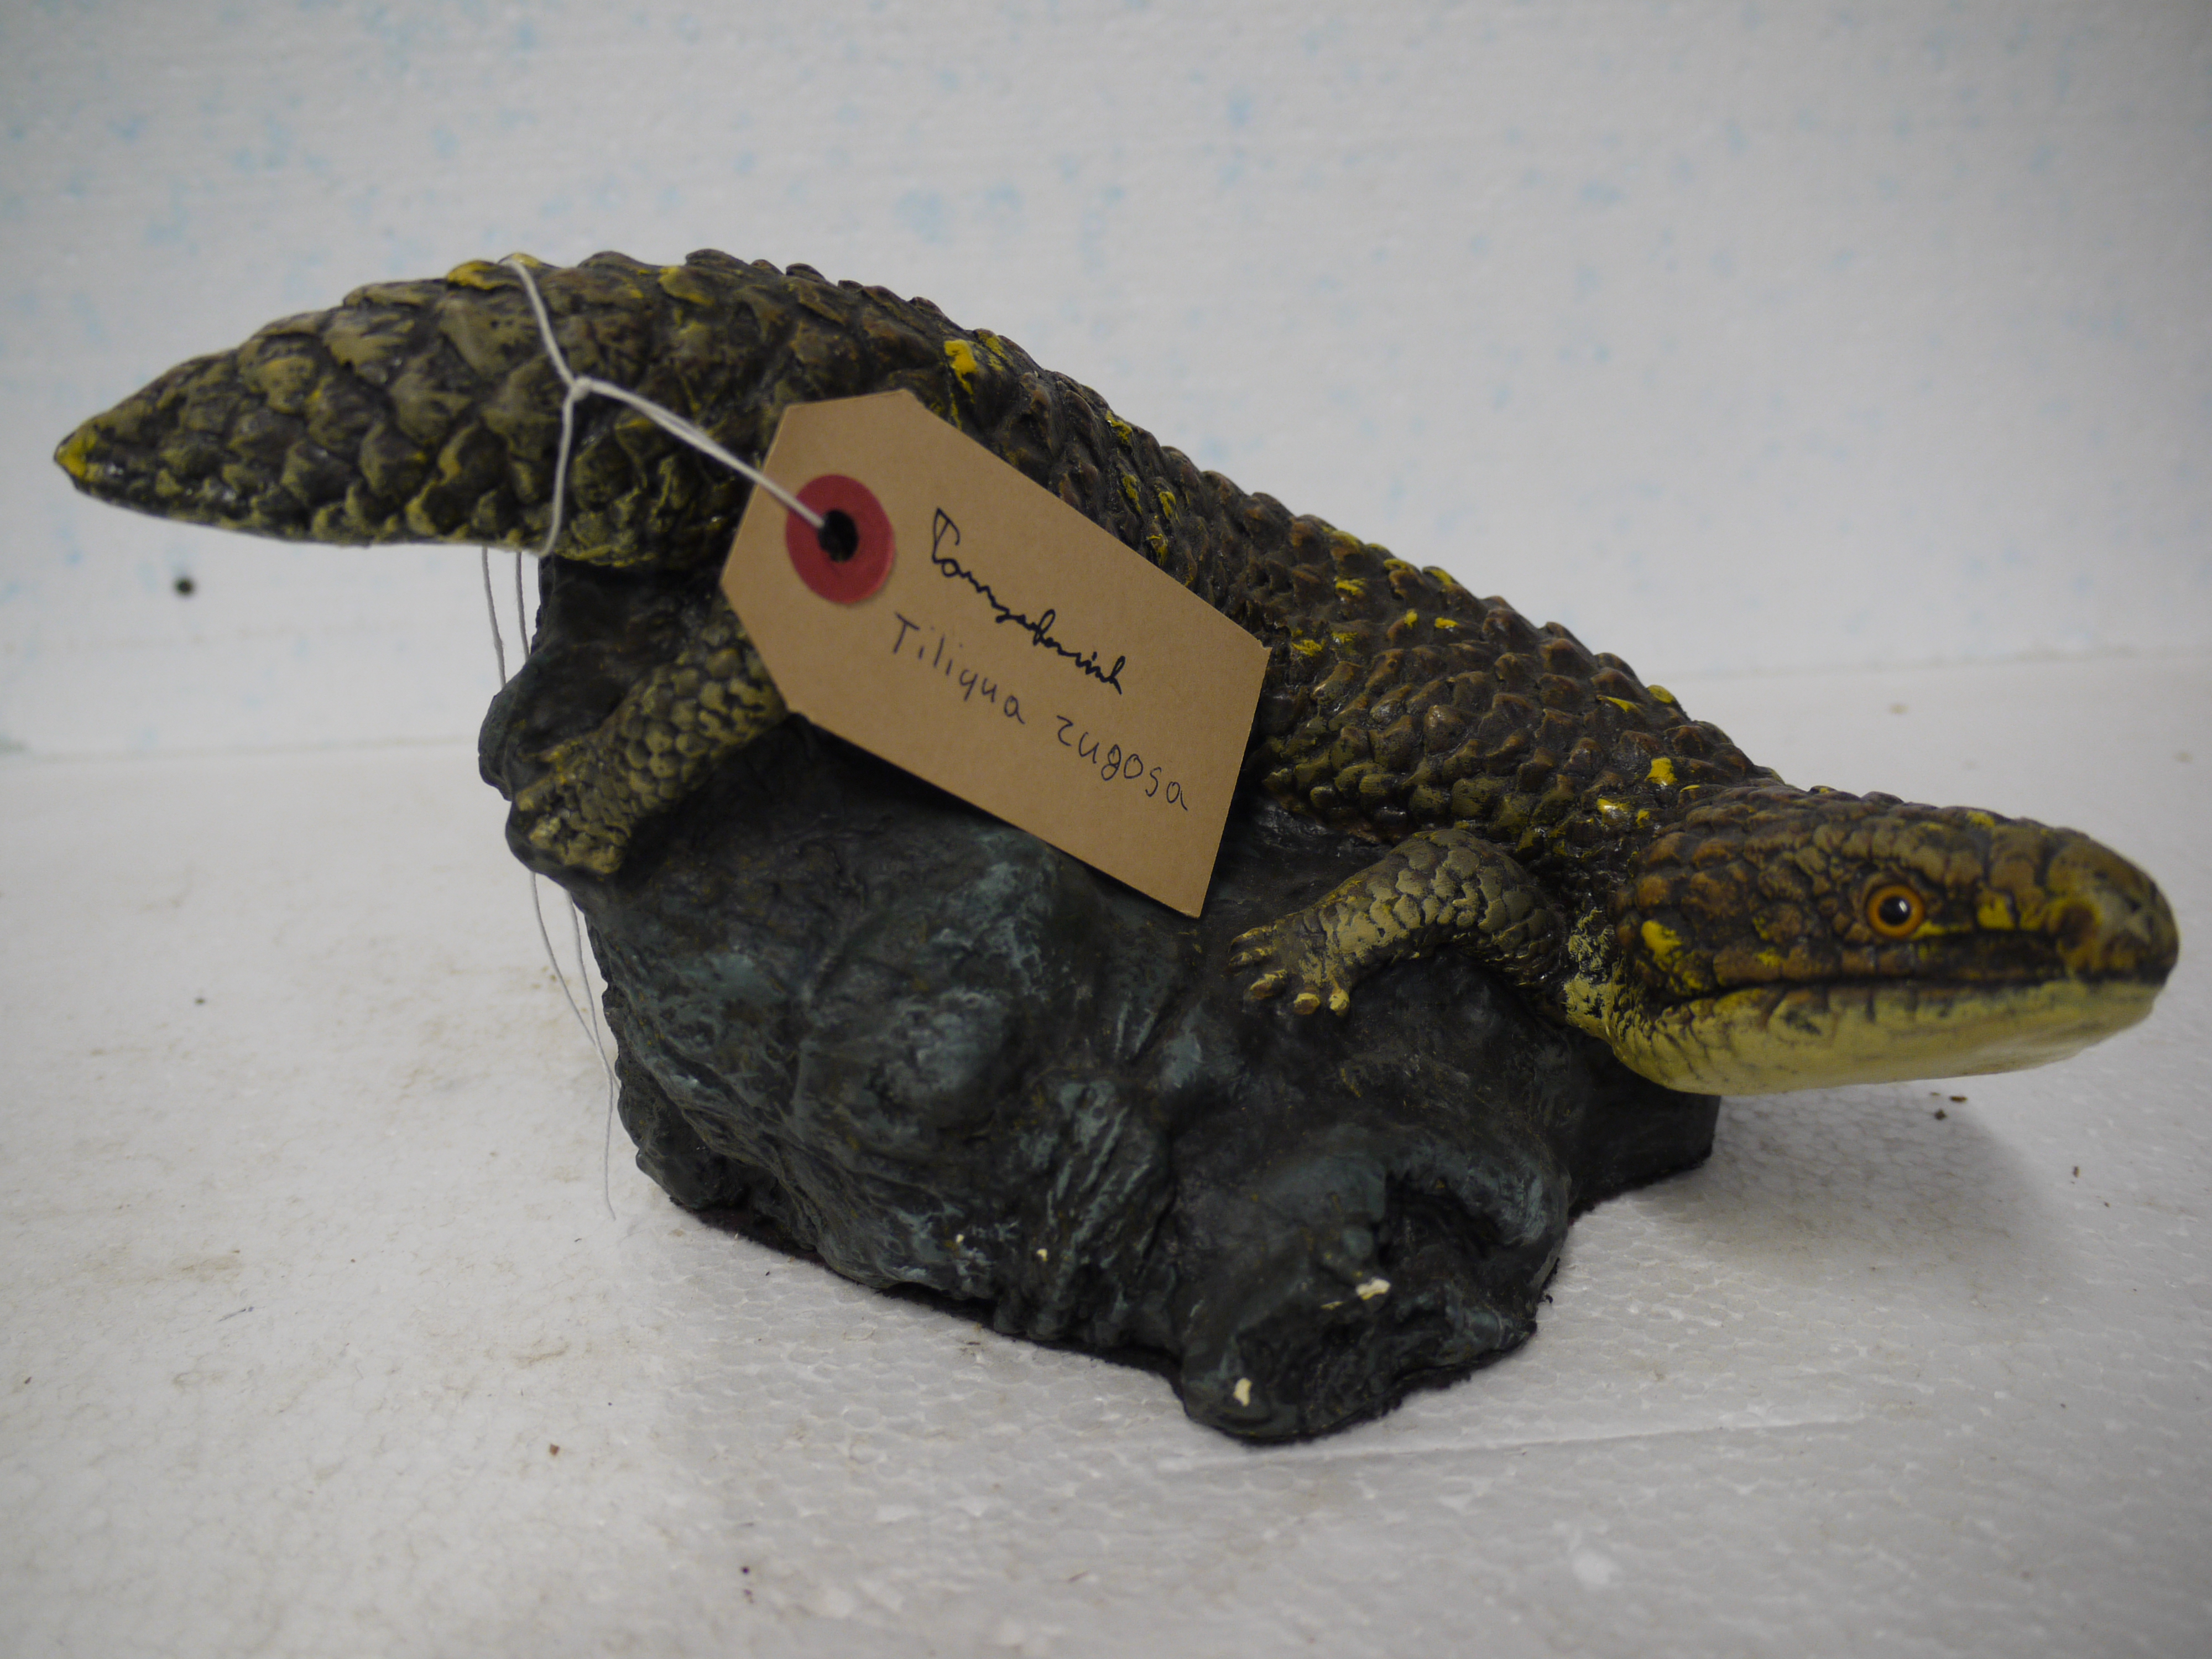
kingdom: Animalia
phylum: Chordata
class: Squamata
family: Scincidae
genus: Tiliqua
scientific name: Tiliqua rugosa
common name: Pinecone lizard
